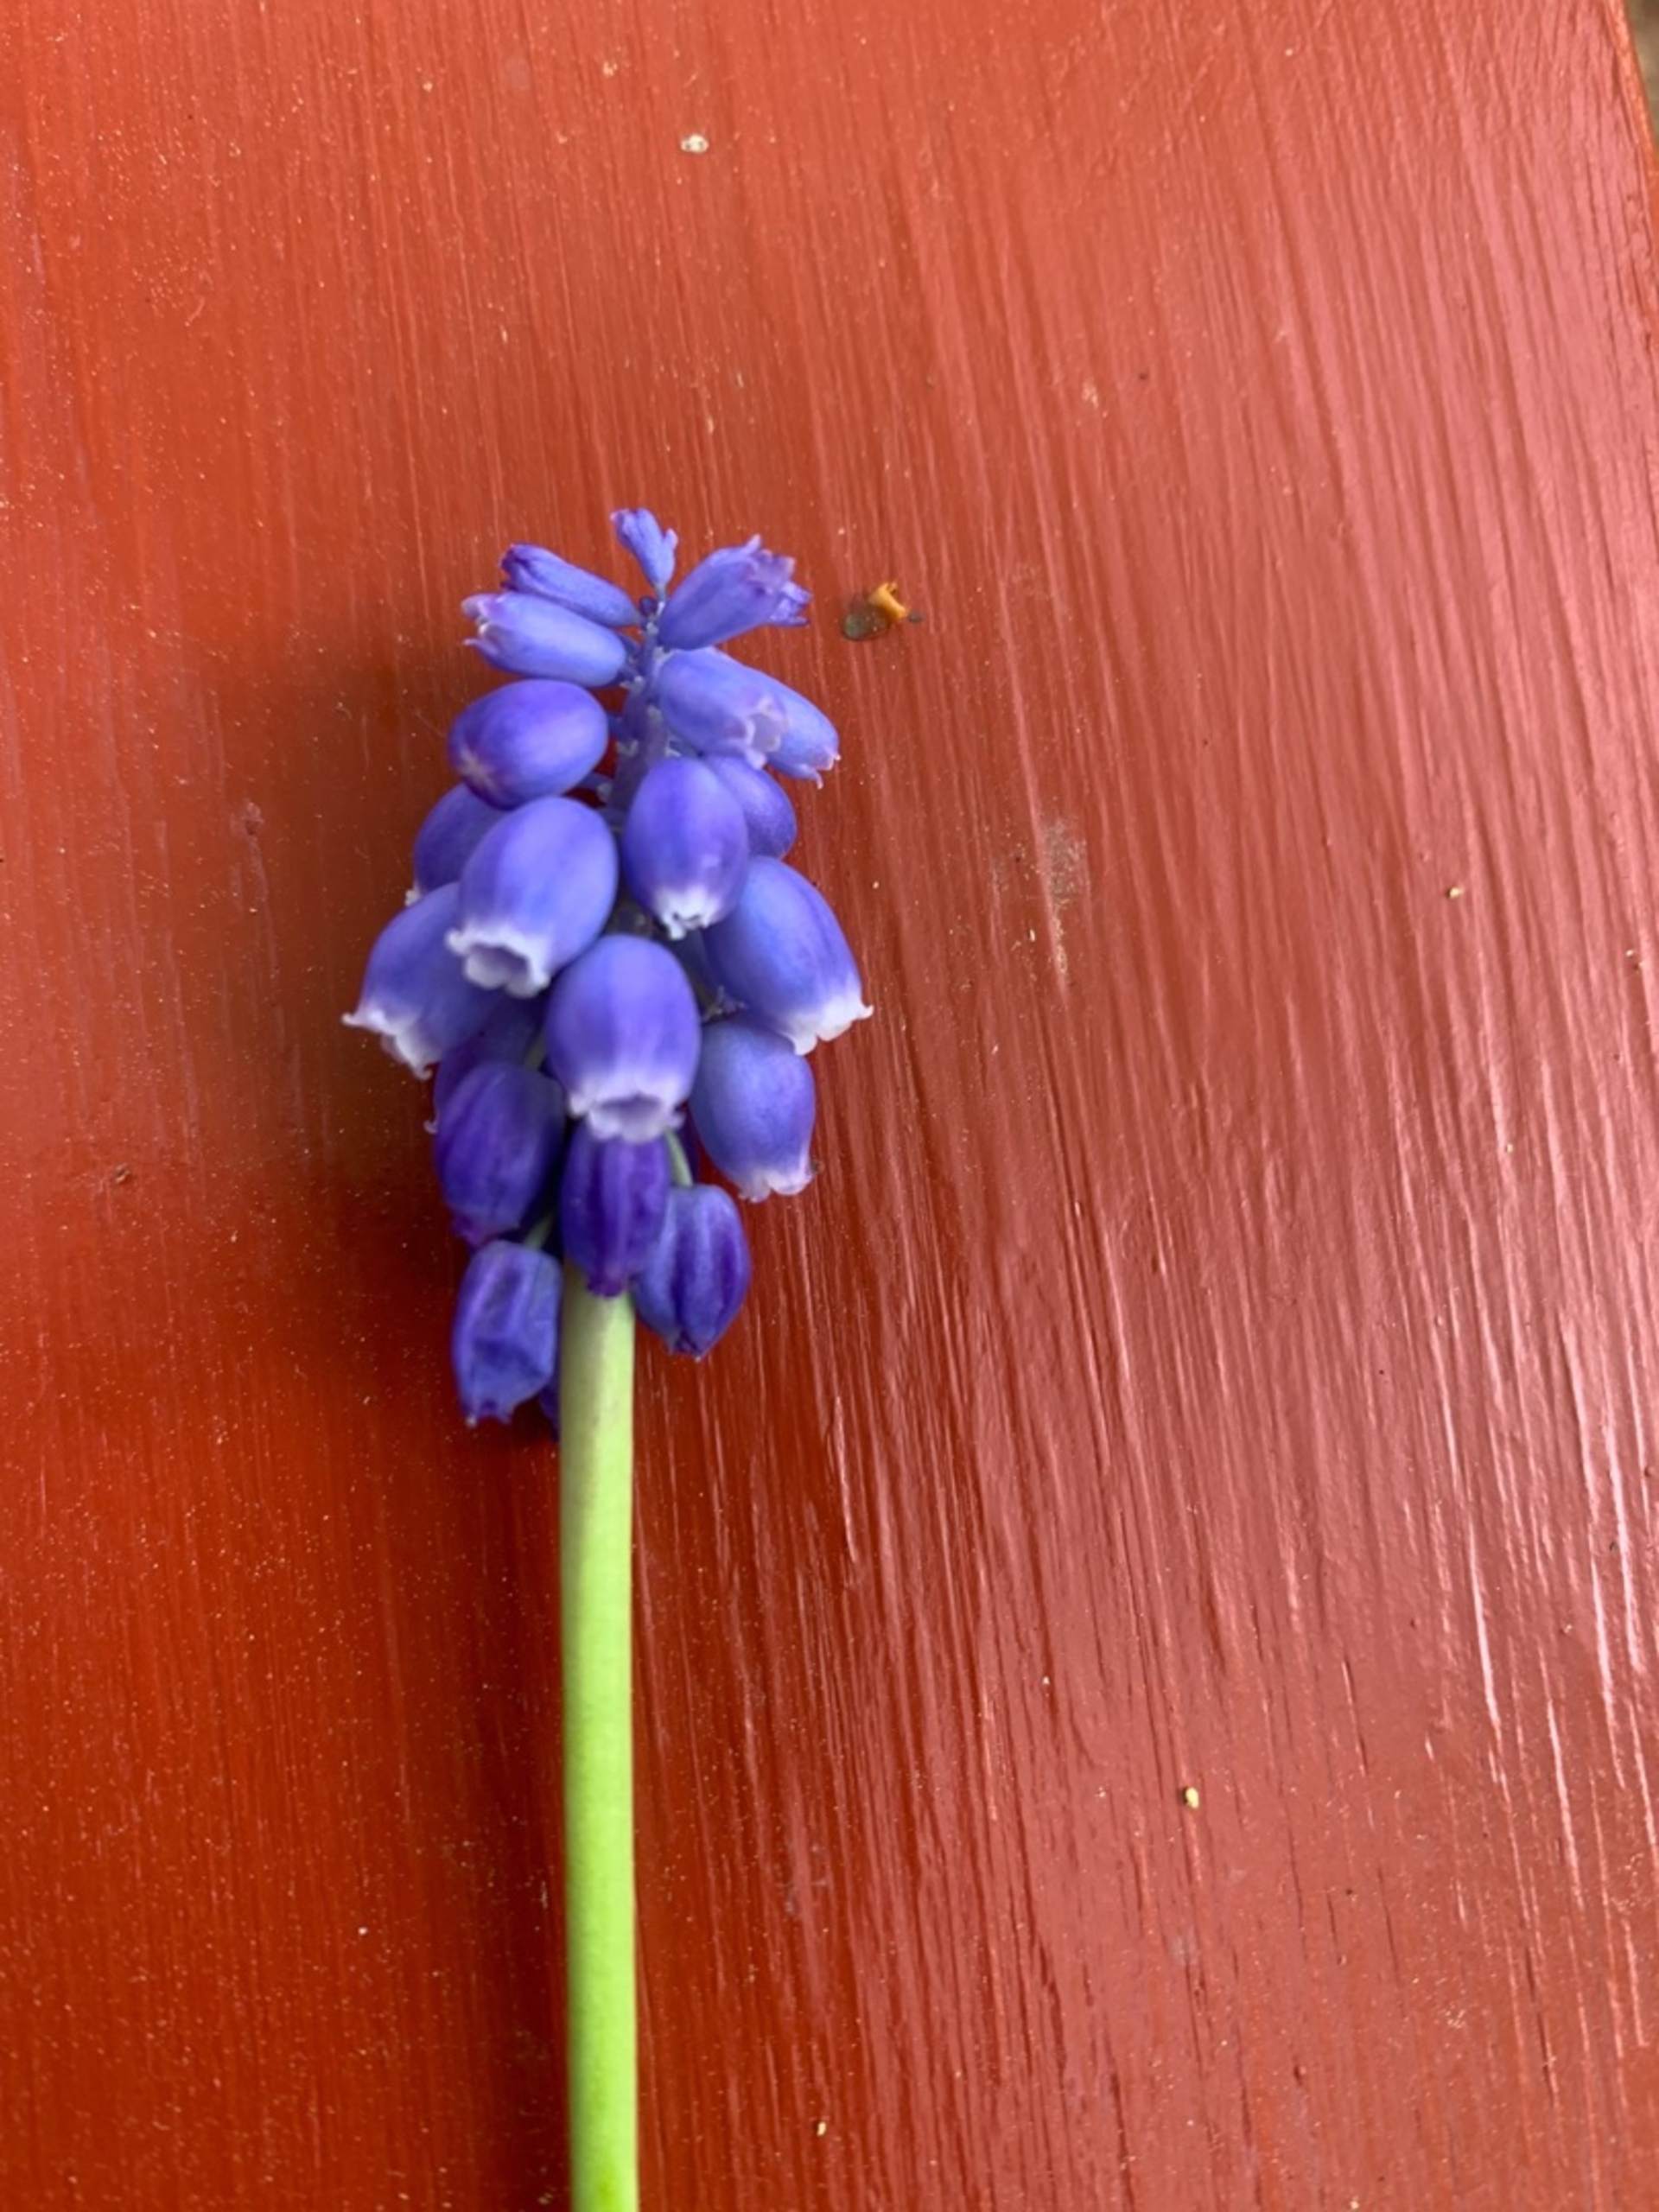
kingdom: Plantae
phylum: Tracheophyta
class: Liliopsida
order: Asparagales
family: Asparagaceae
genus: Muscari
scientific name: Muscari armeniacum
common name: Armensk perlehyacint
